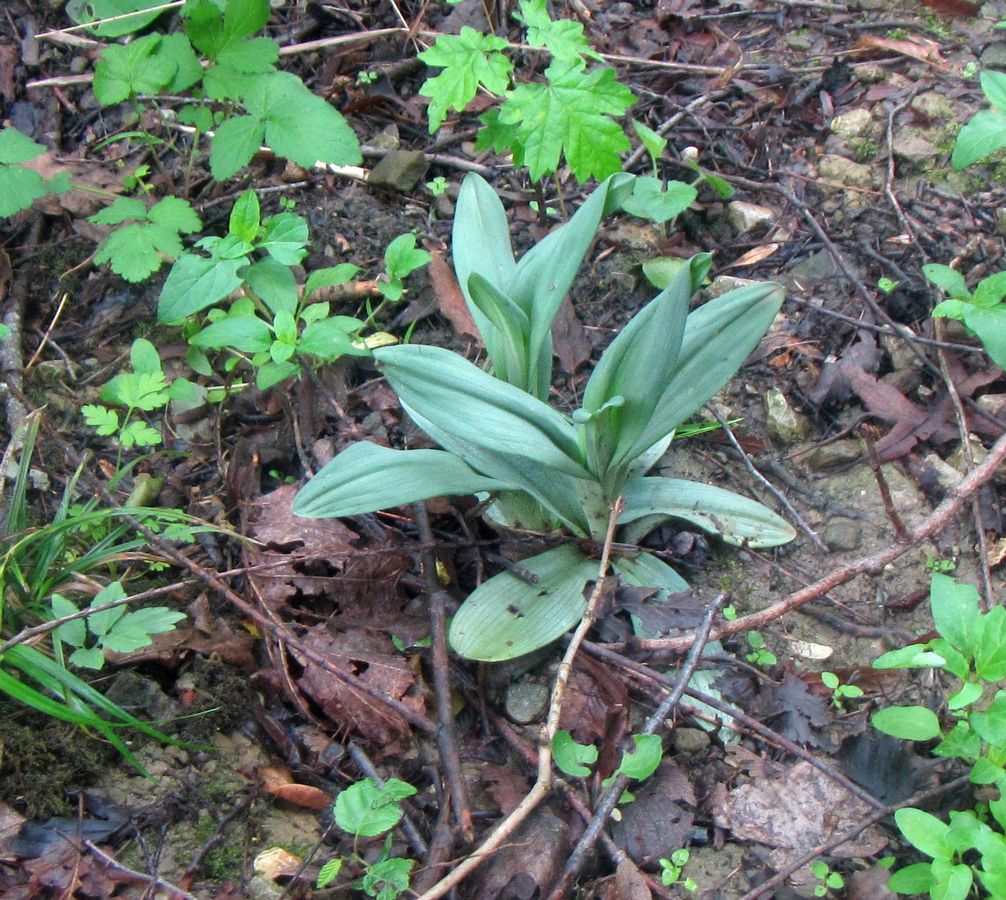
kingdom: Plantae
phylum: Tracheophyta
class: Liliopsida
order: Asparagales
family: Orchidaceae
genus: Ophrys
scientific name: Ophrys scolopax
